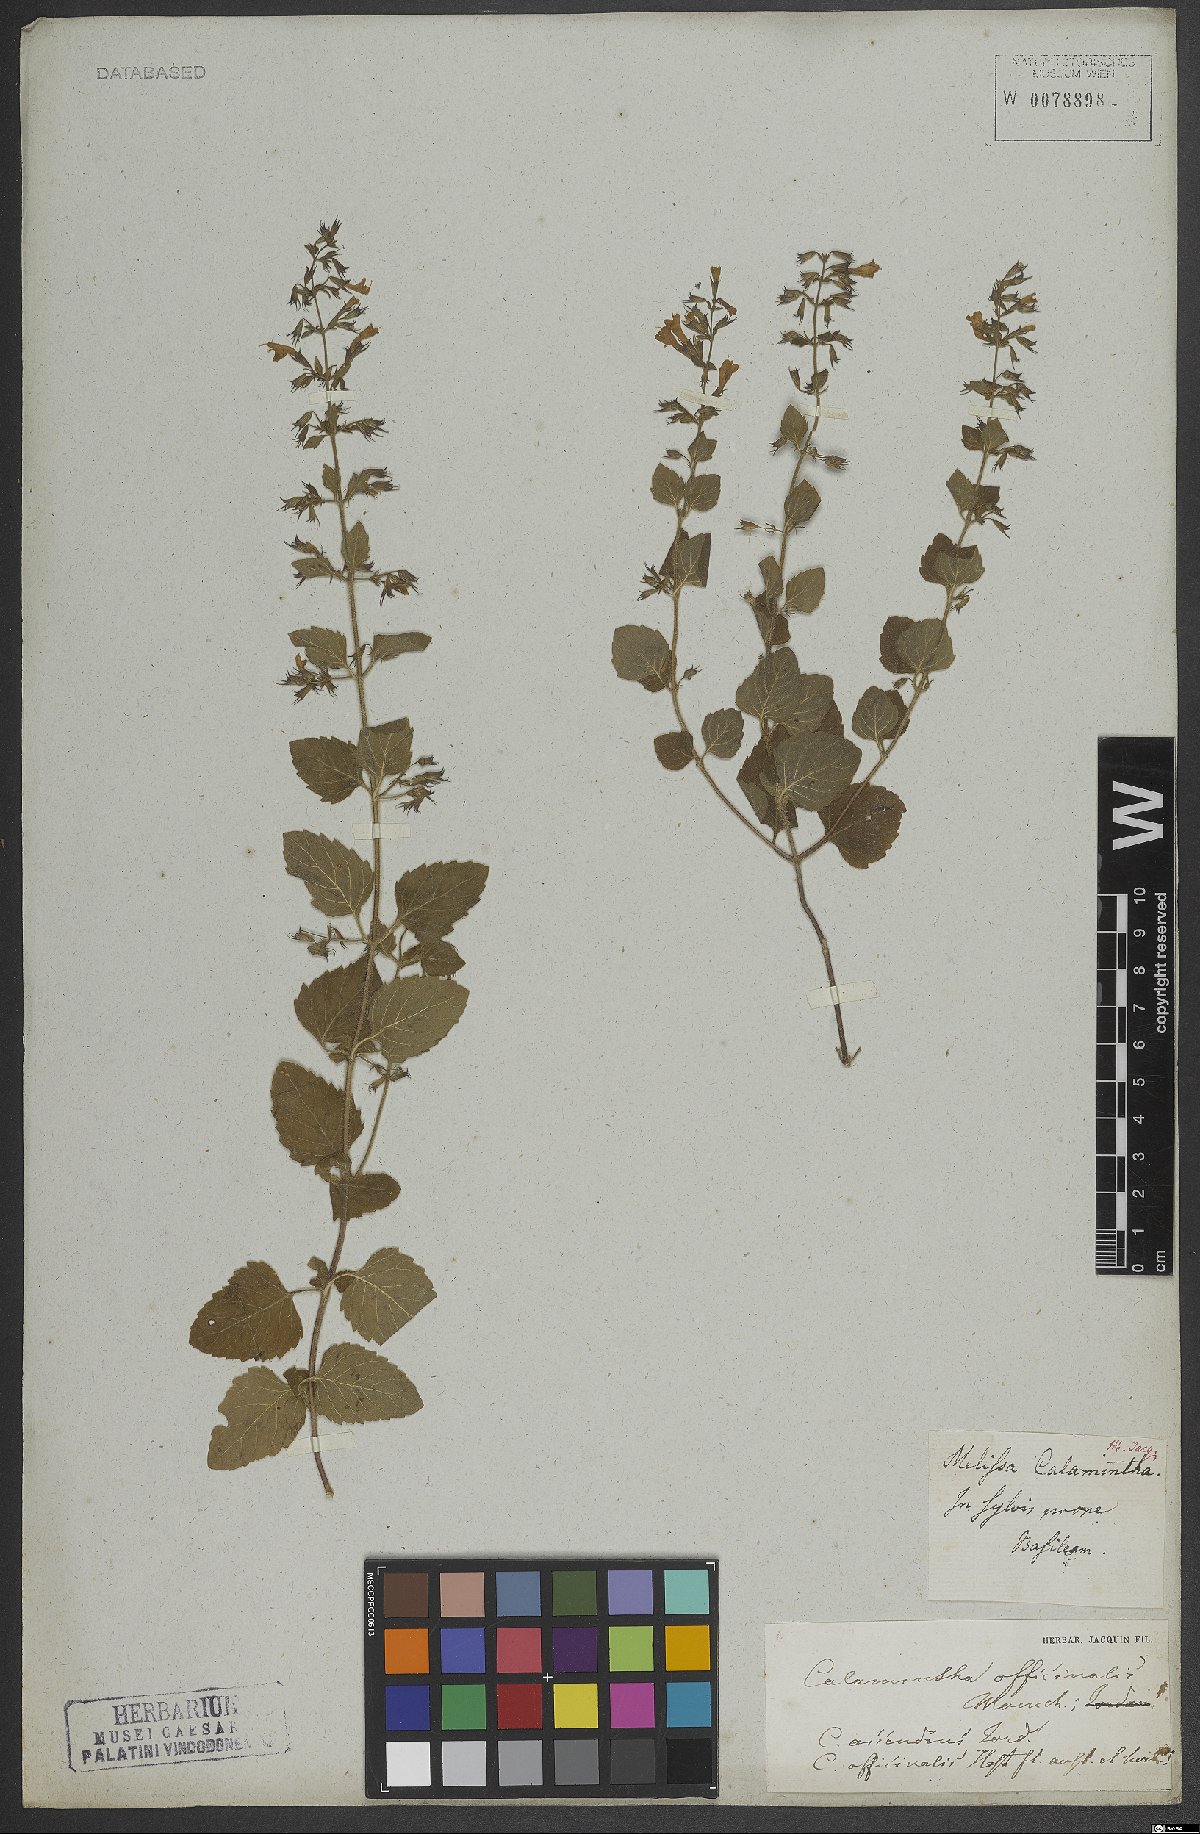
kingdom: Plantae
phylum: Tracheophyta
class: Magnoliopsida
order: Lamiales
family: Lamiaceae
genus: Clinopodium
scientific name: Clinopodium nepeta
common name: Lesser calamint
